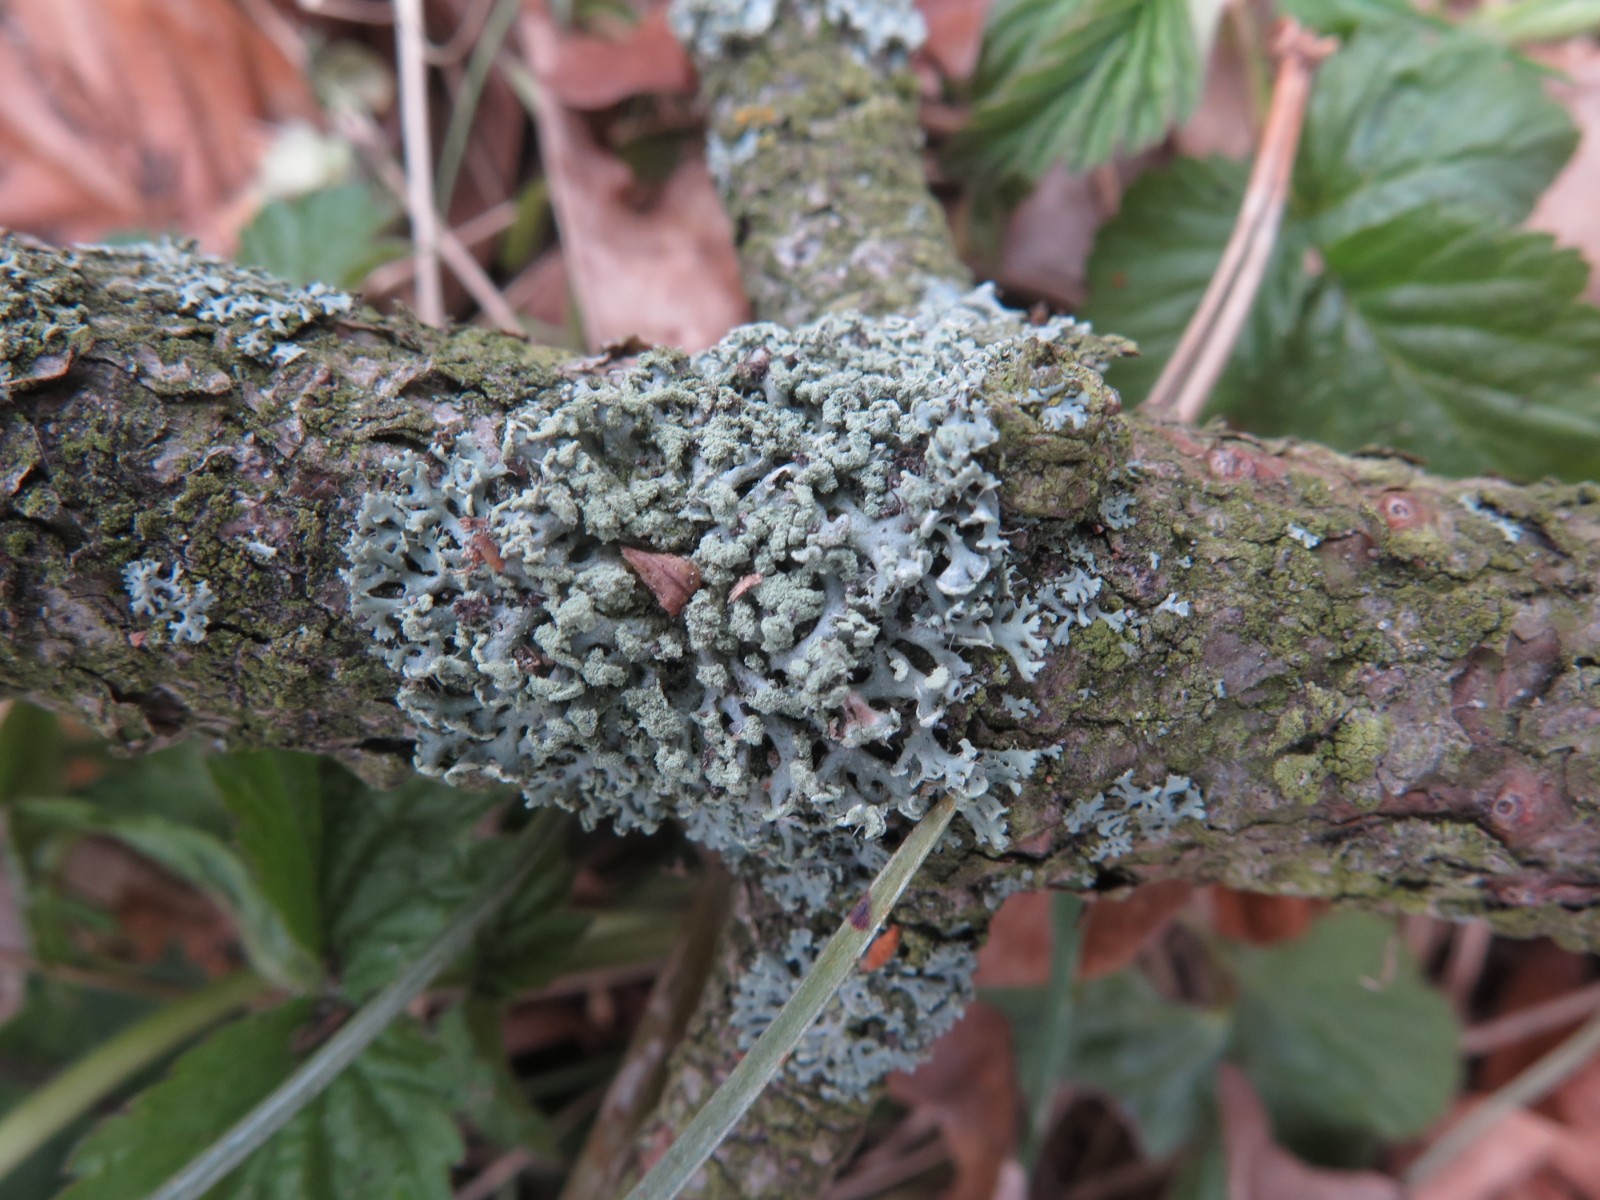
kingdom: Fungi
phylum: Ascomycota
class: Lecanoromycetes
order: Lecanorales
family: Parmeliaceae
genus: Hypogymnia
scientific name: Hypogymnia physodes
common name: almindelig kvistlav
